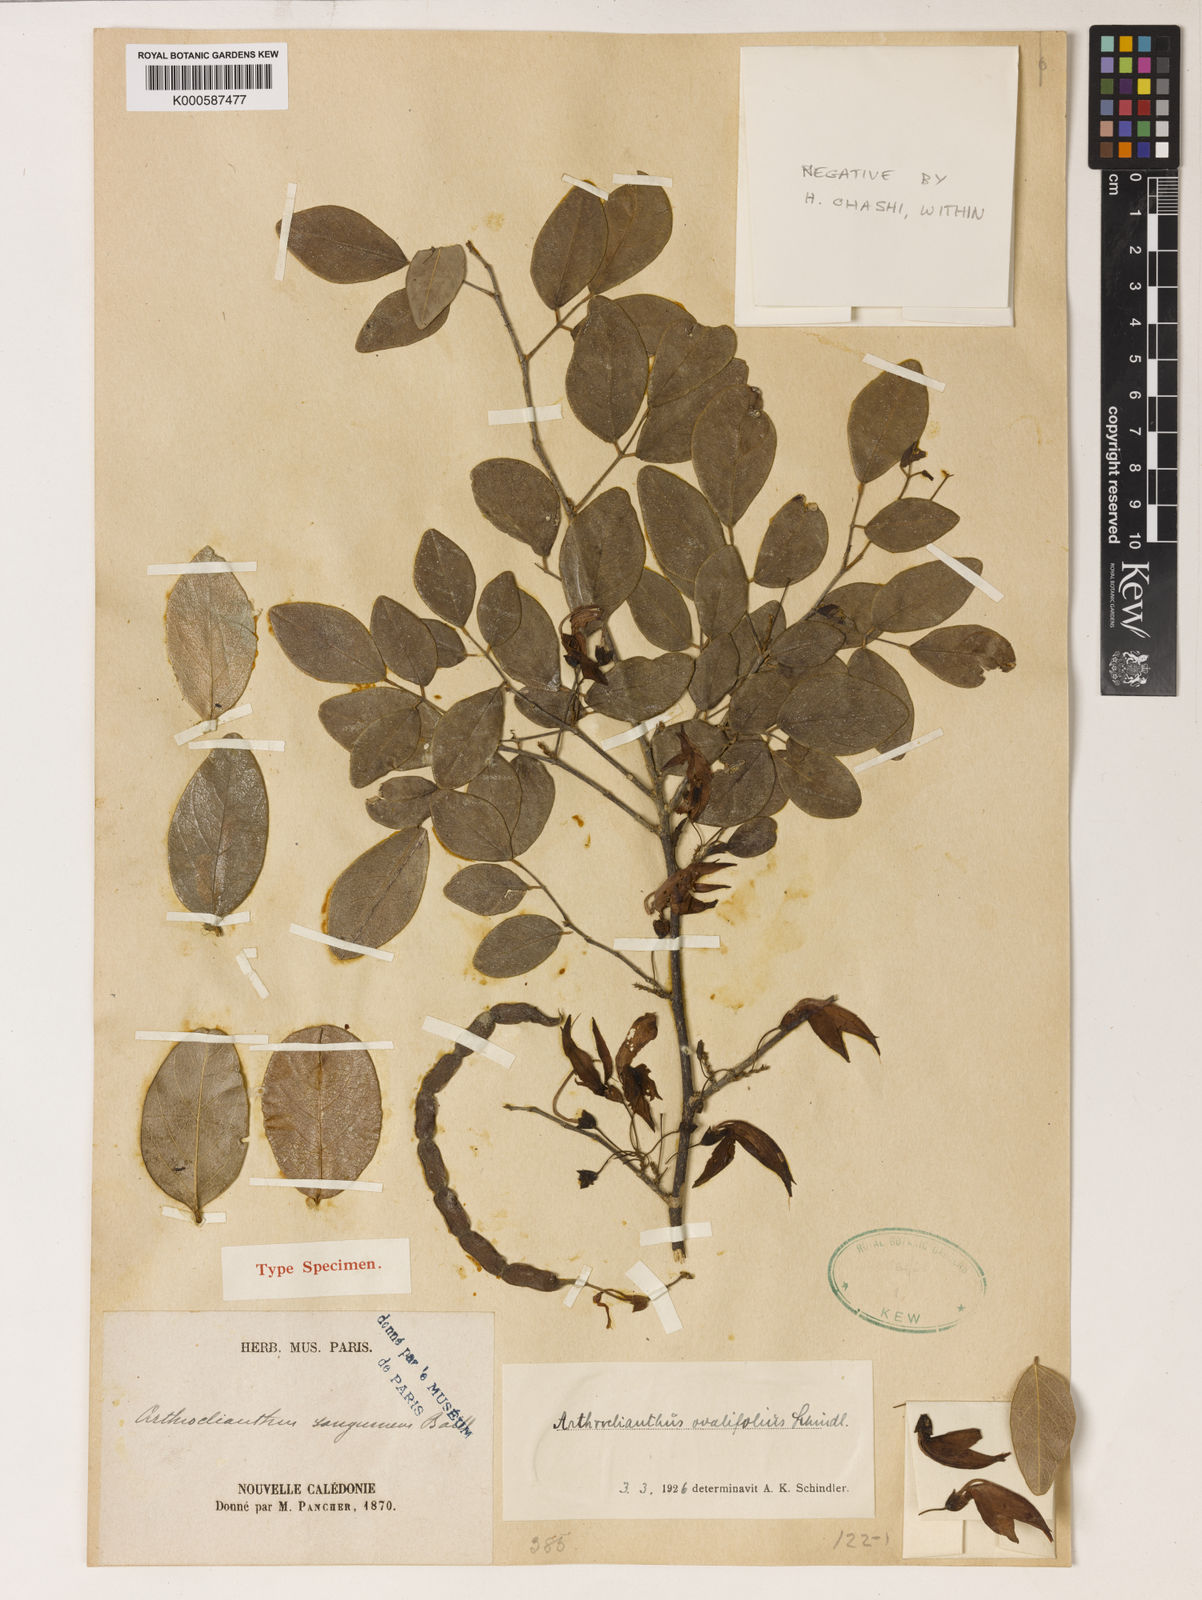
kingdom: Plantae
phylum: Tracheophyta
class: Magnoliopsida
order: Fabales
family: Fabaceae
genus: Arthroclianthus
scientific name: Arthroclianthus sanguineus
